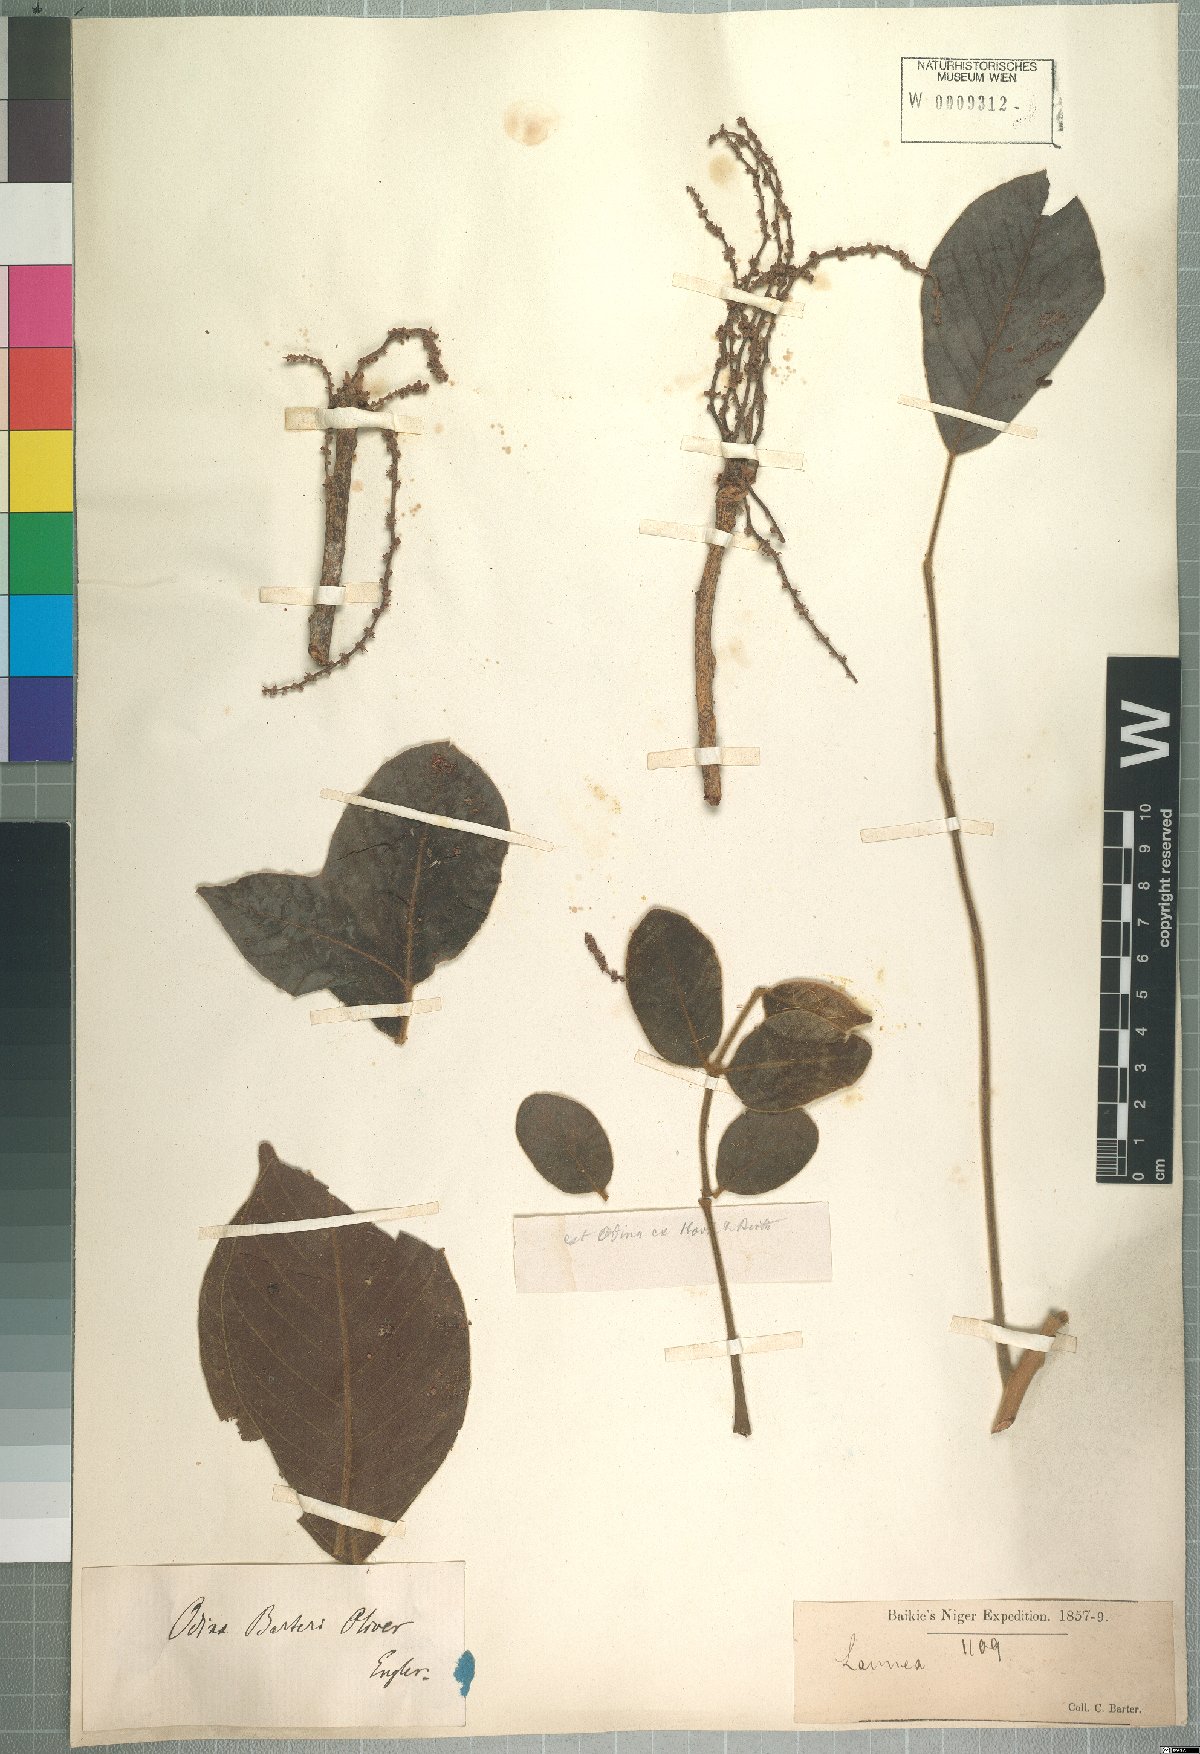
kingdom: Plantae
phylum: Tracheophyta
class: Magnoliopsida
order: Sapindales
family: Anacardiaceae
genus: Lannea
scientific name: Lannea barteri
